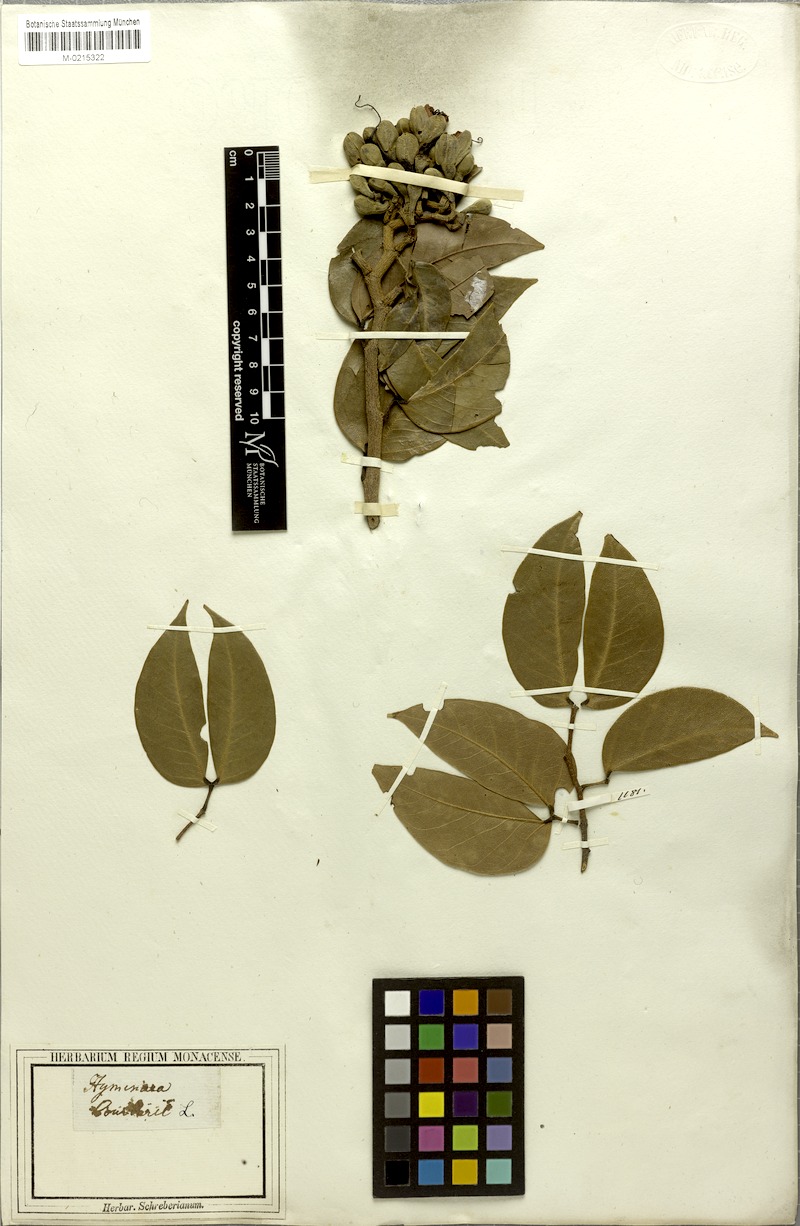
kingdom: Plantae
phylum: Tracheophyta
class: Magnoliopsida
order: Fabales
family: Fabaceae
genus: Hymenaea
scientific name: Hymenaea courbaril
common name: Brazilian copal
